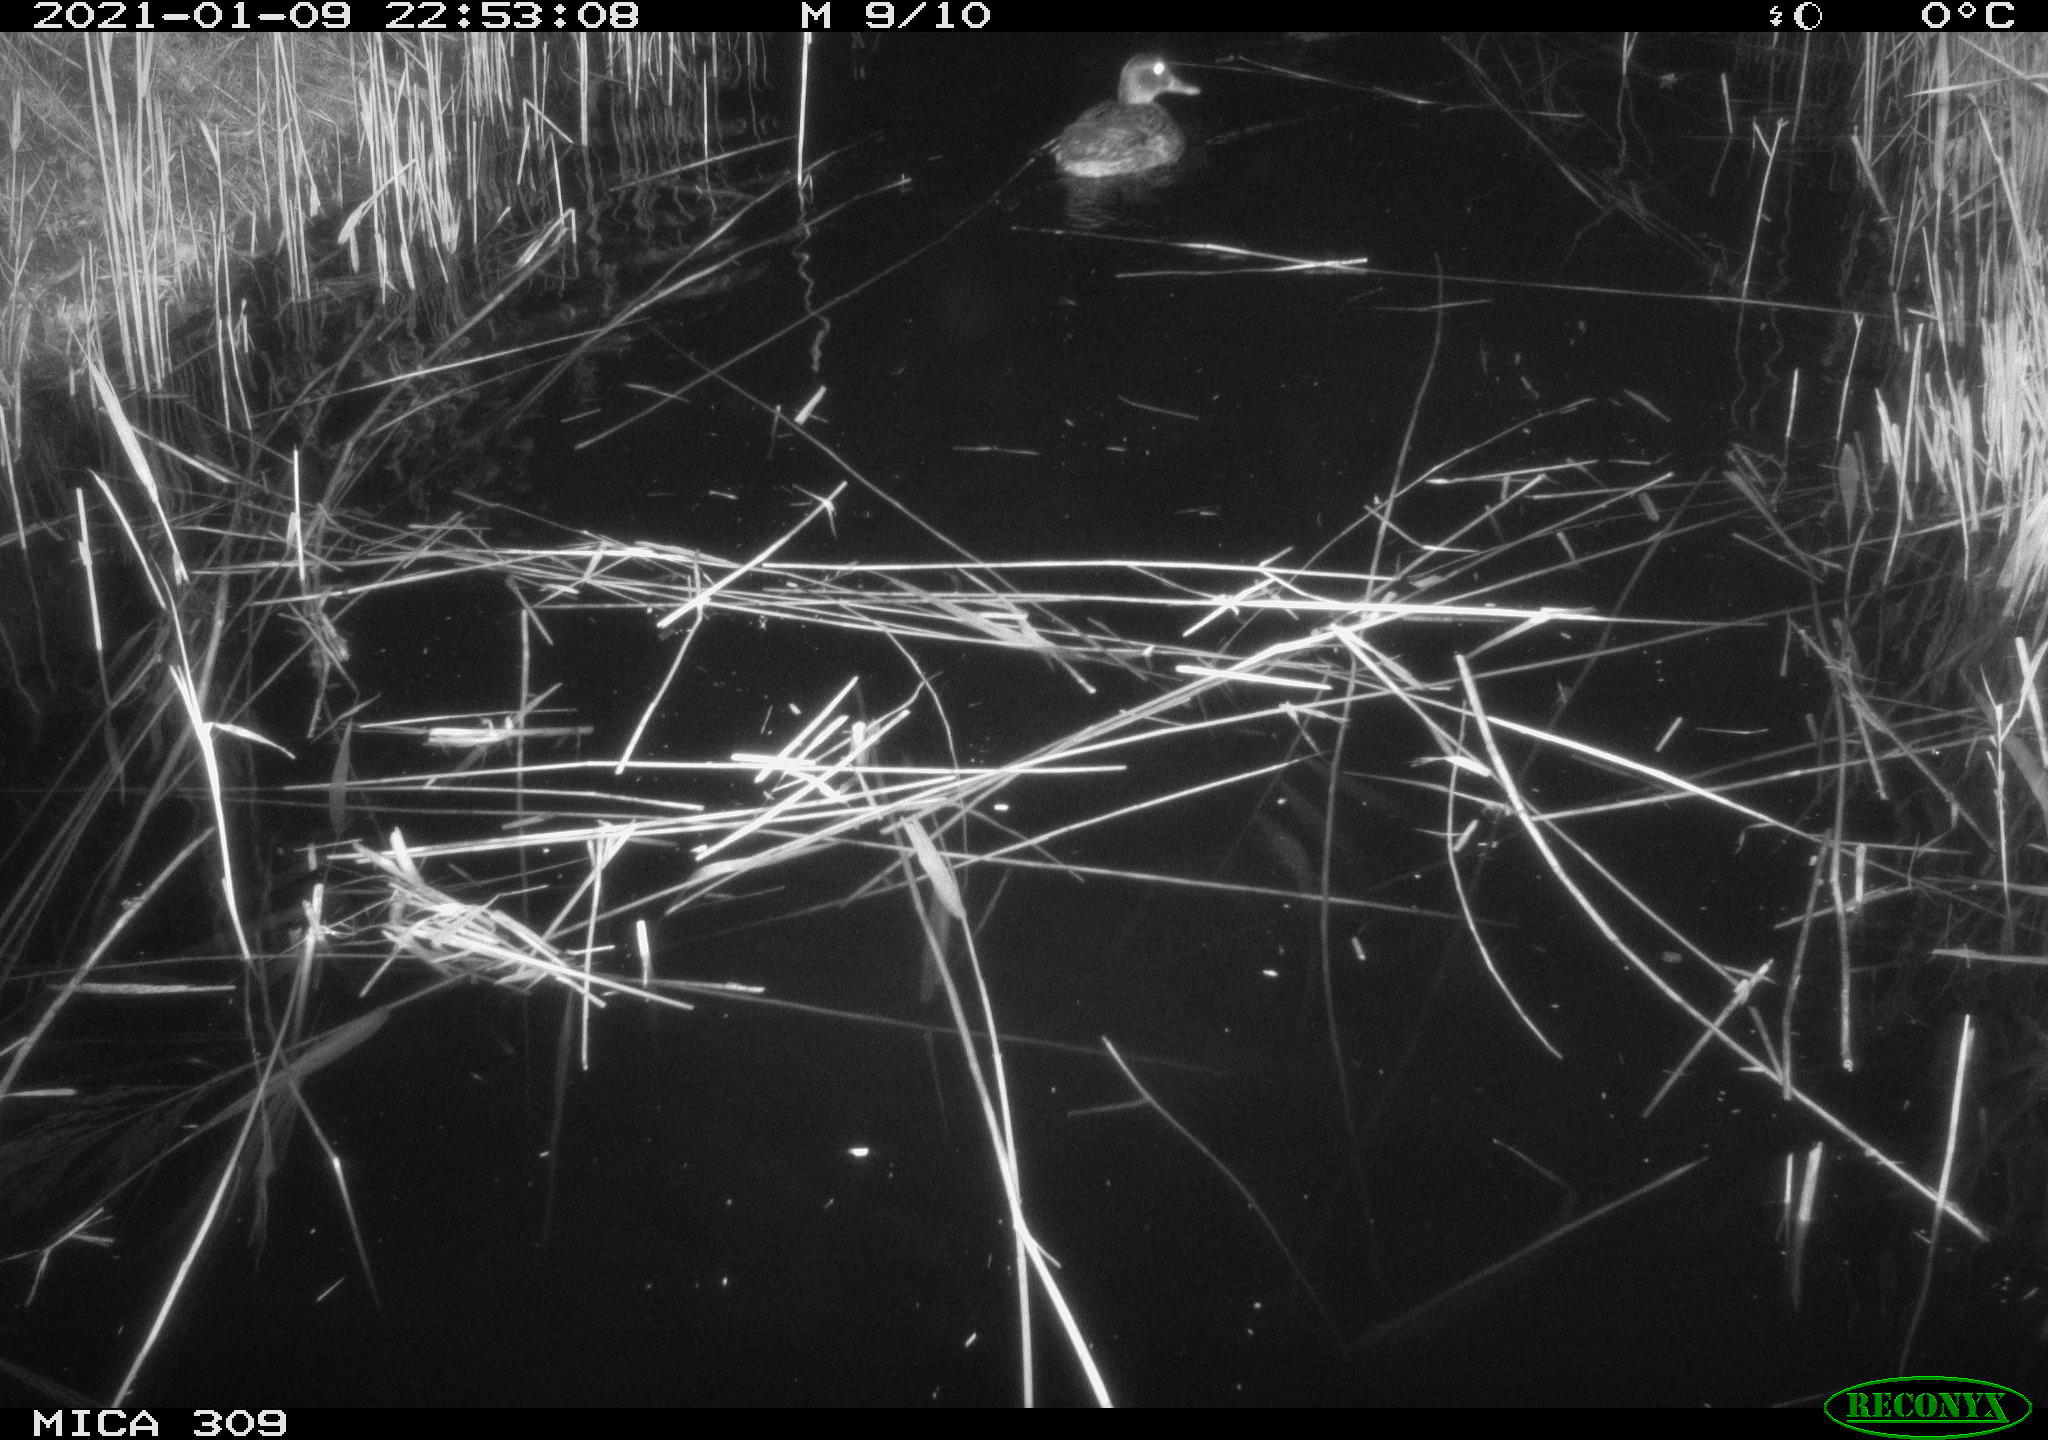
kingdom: Animalia
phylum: Chordata
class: Aves
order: Anseriformes
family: Anatidae
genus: Anas
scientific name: Anas platyrhynchos
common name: Mallard
